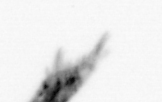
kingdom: Animalia
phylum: Arthropoda
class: Copepoda
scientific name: Copepoda
